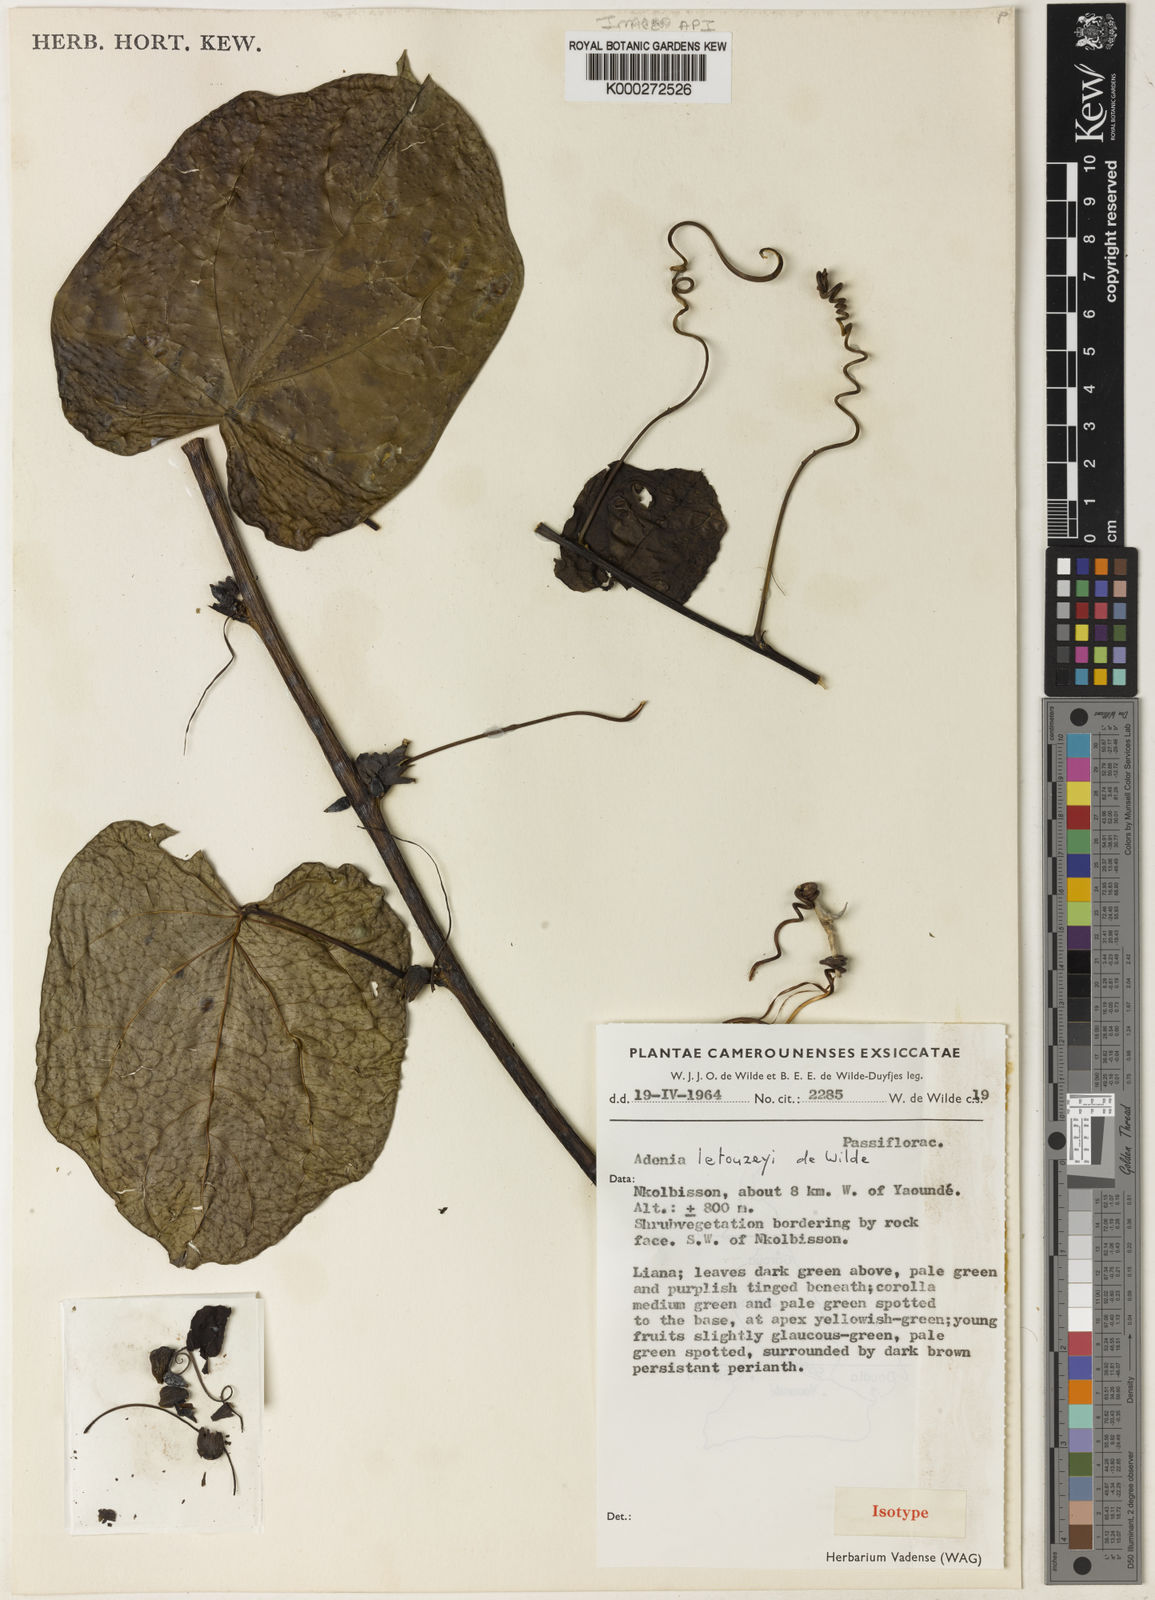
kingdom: Plantae
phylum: Tracheophyta
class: Magnoliopsida
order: Malpighiales
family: Passifloraceae
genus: Adenia
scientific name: Adenia lobata
